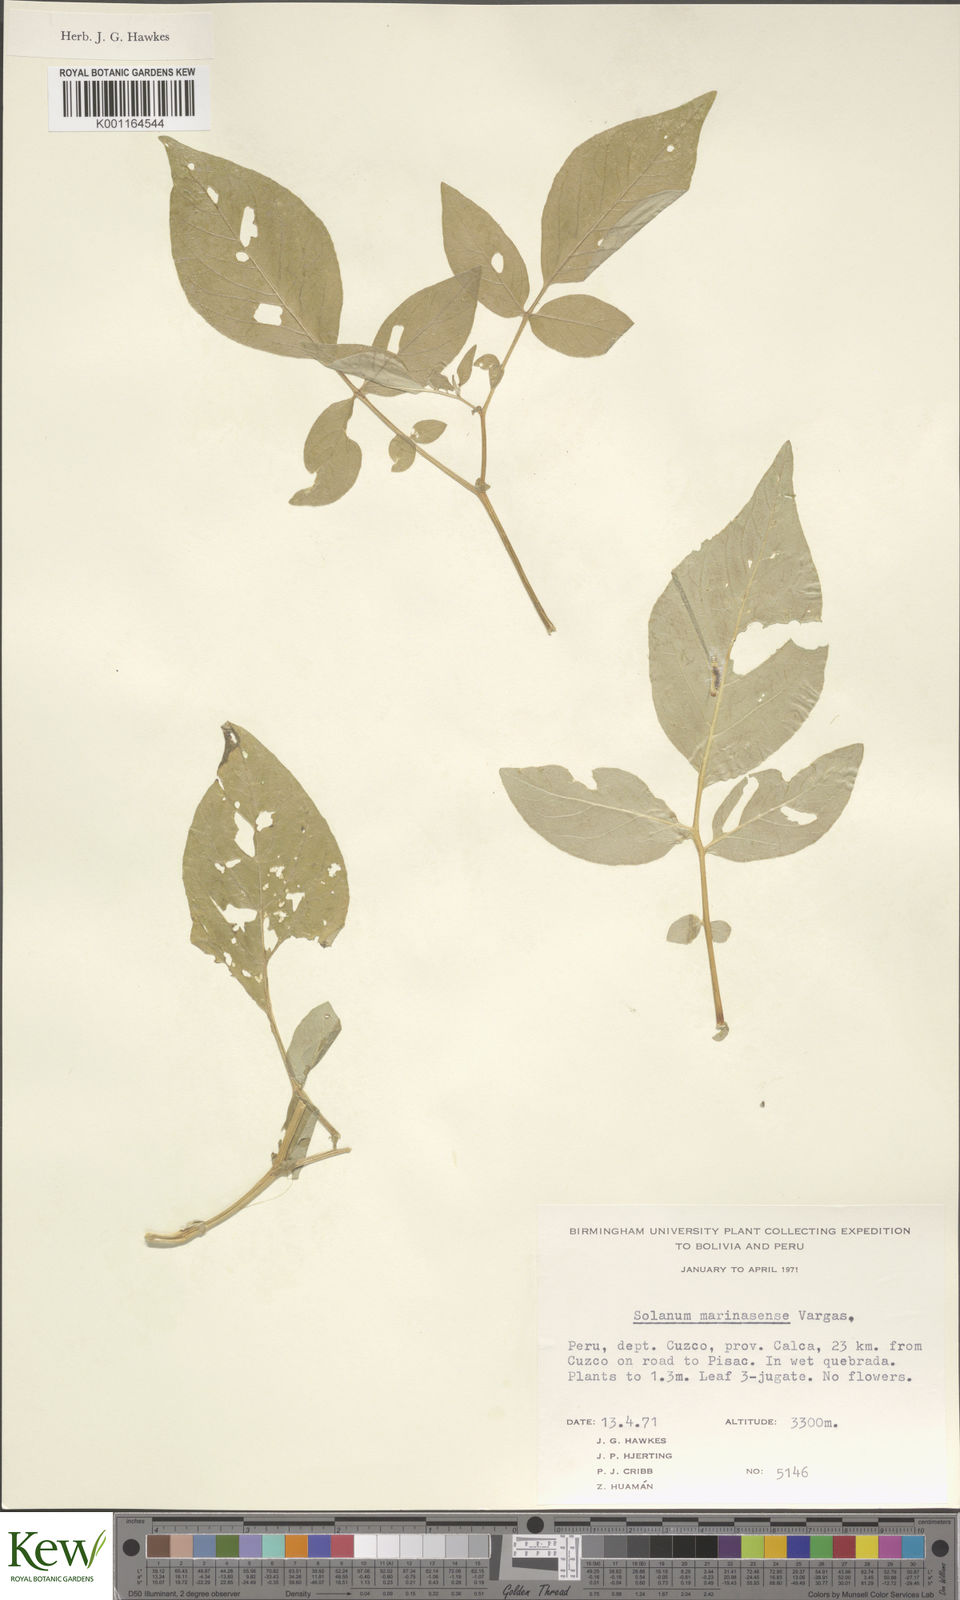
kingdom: Plantae
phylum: Tracheophyta
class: Magnoliopsida
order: Solanales
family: Solanaceae
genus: Solanum
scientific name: Solanum candolleanum
